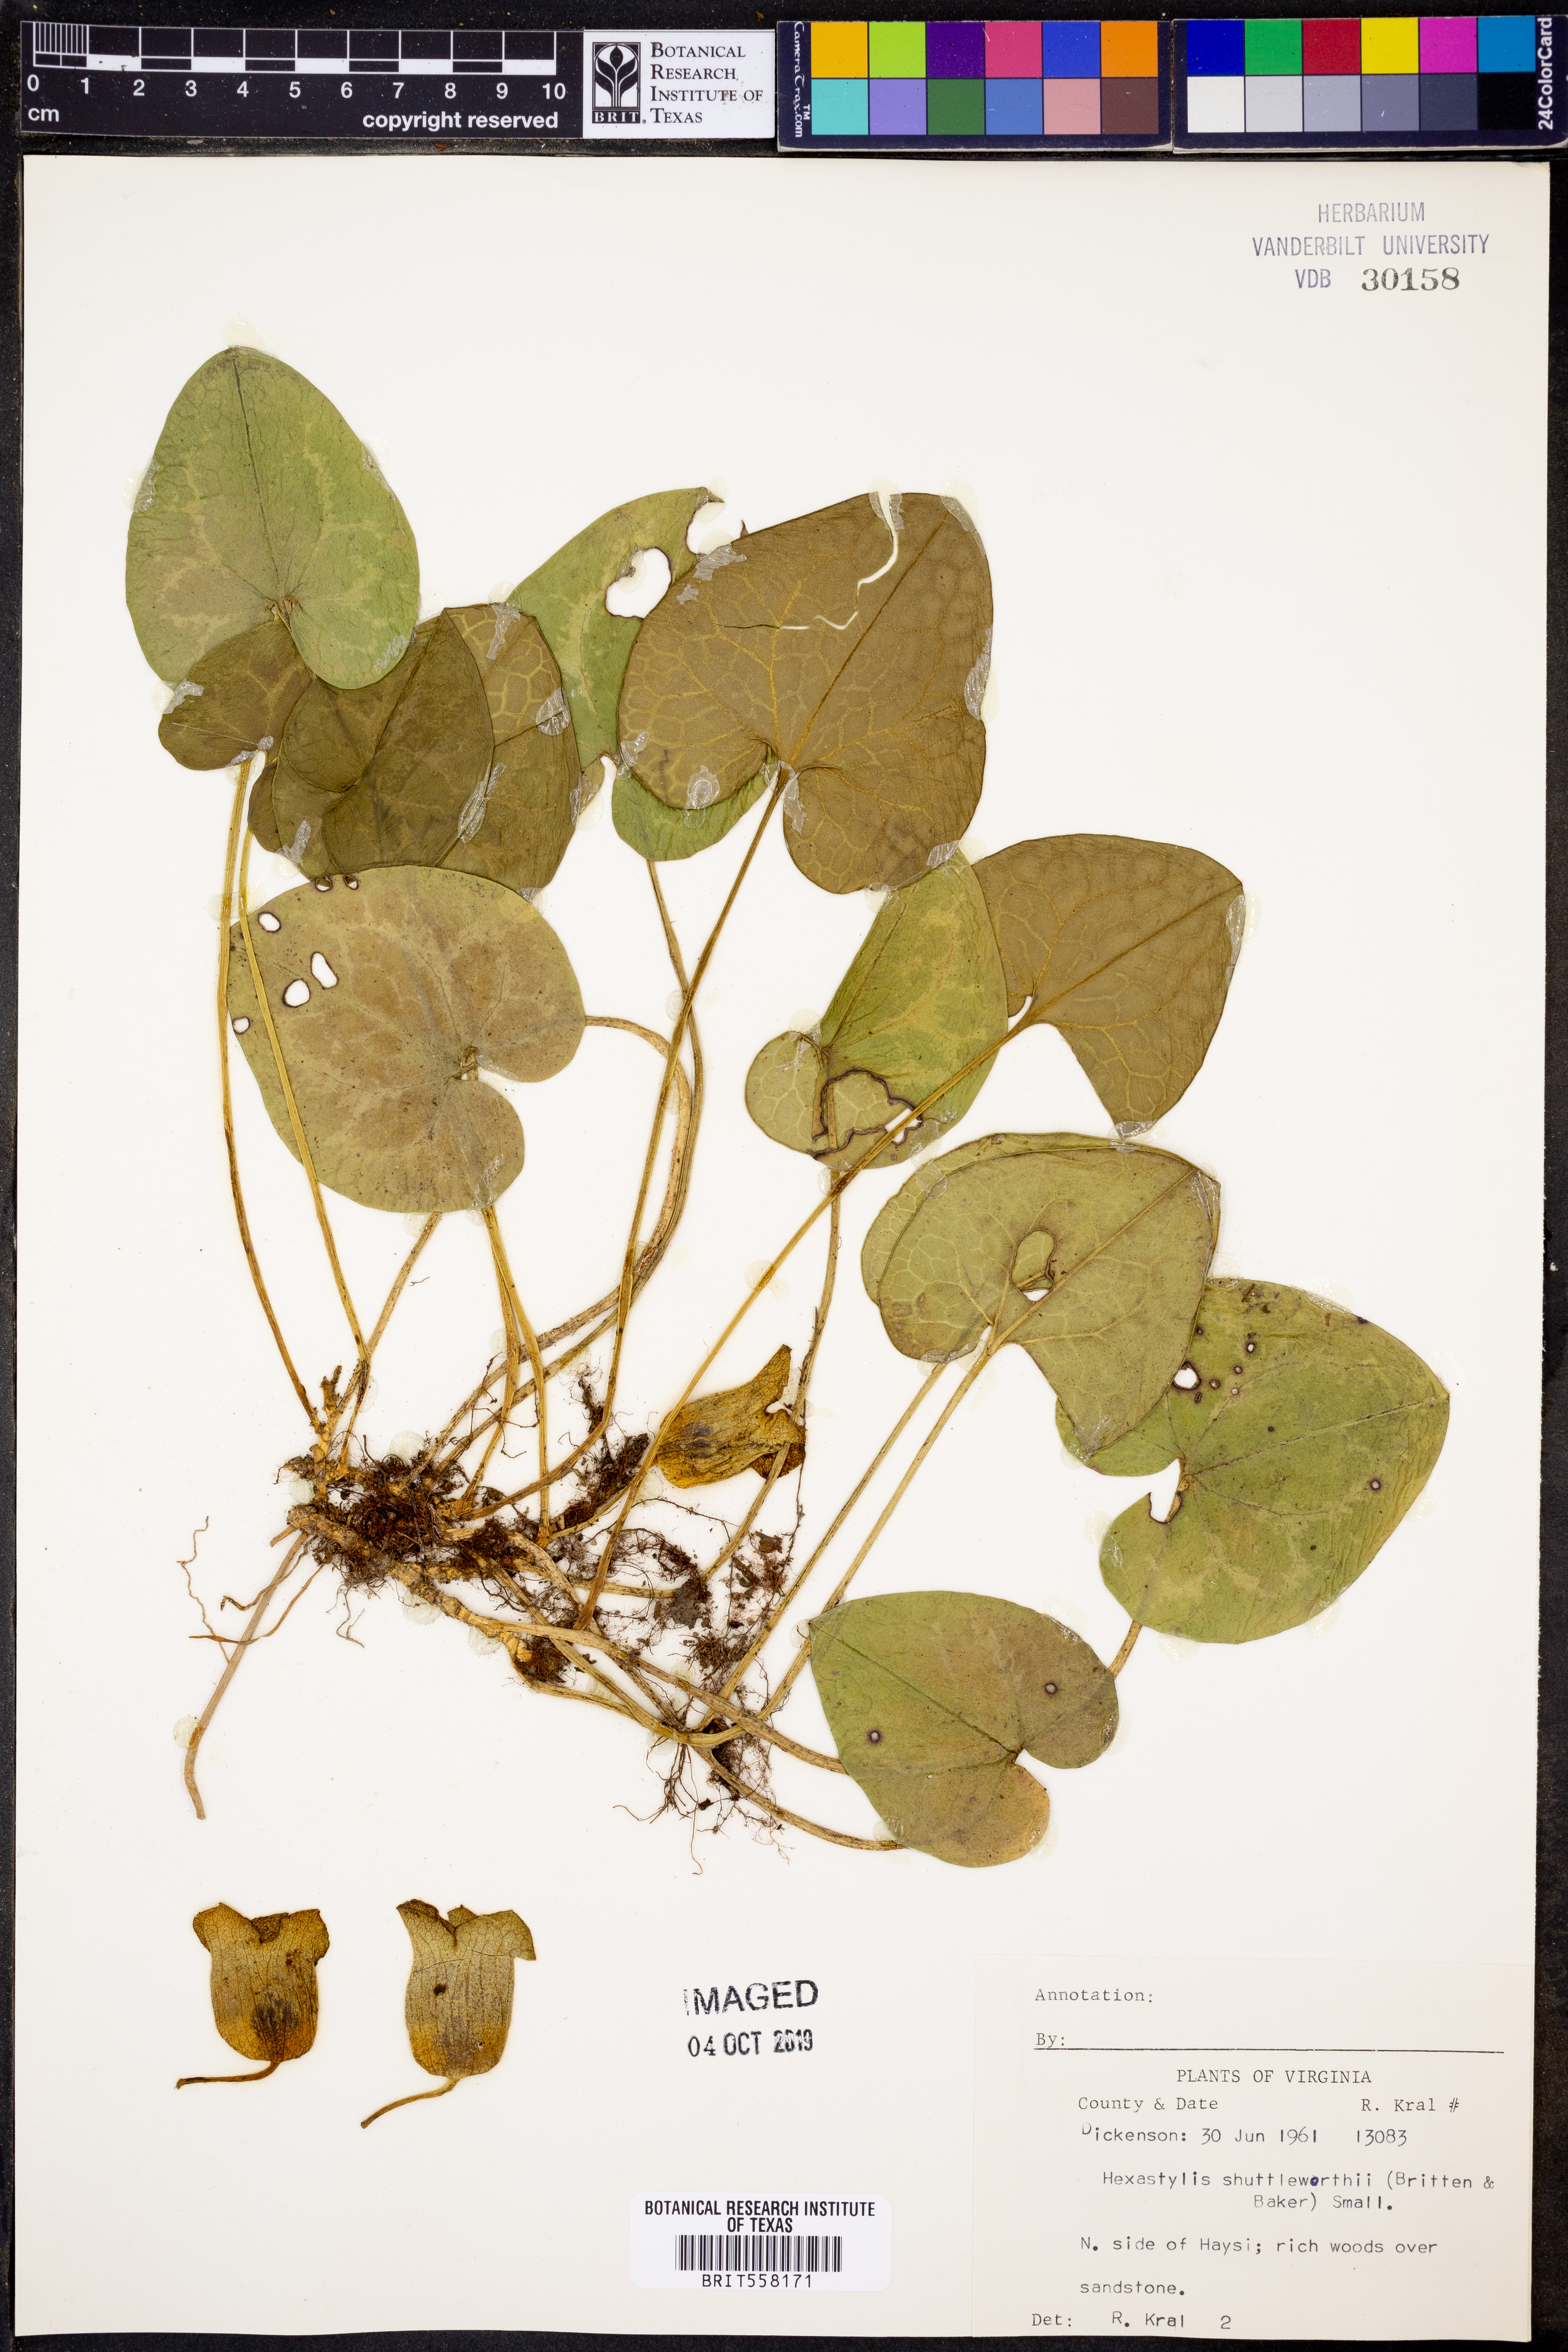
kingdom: Plantae
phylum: Tracheophyta
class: Magnoliopsida
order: Piperales
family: Aristolochiaceae
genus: Hexastylis
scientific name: Hexastylis shuttleworthii
